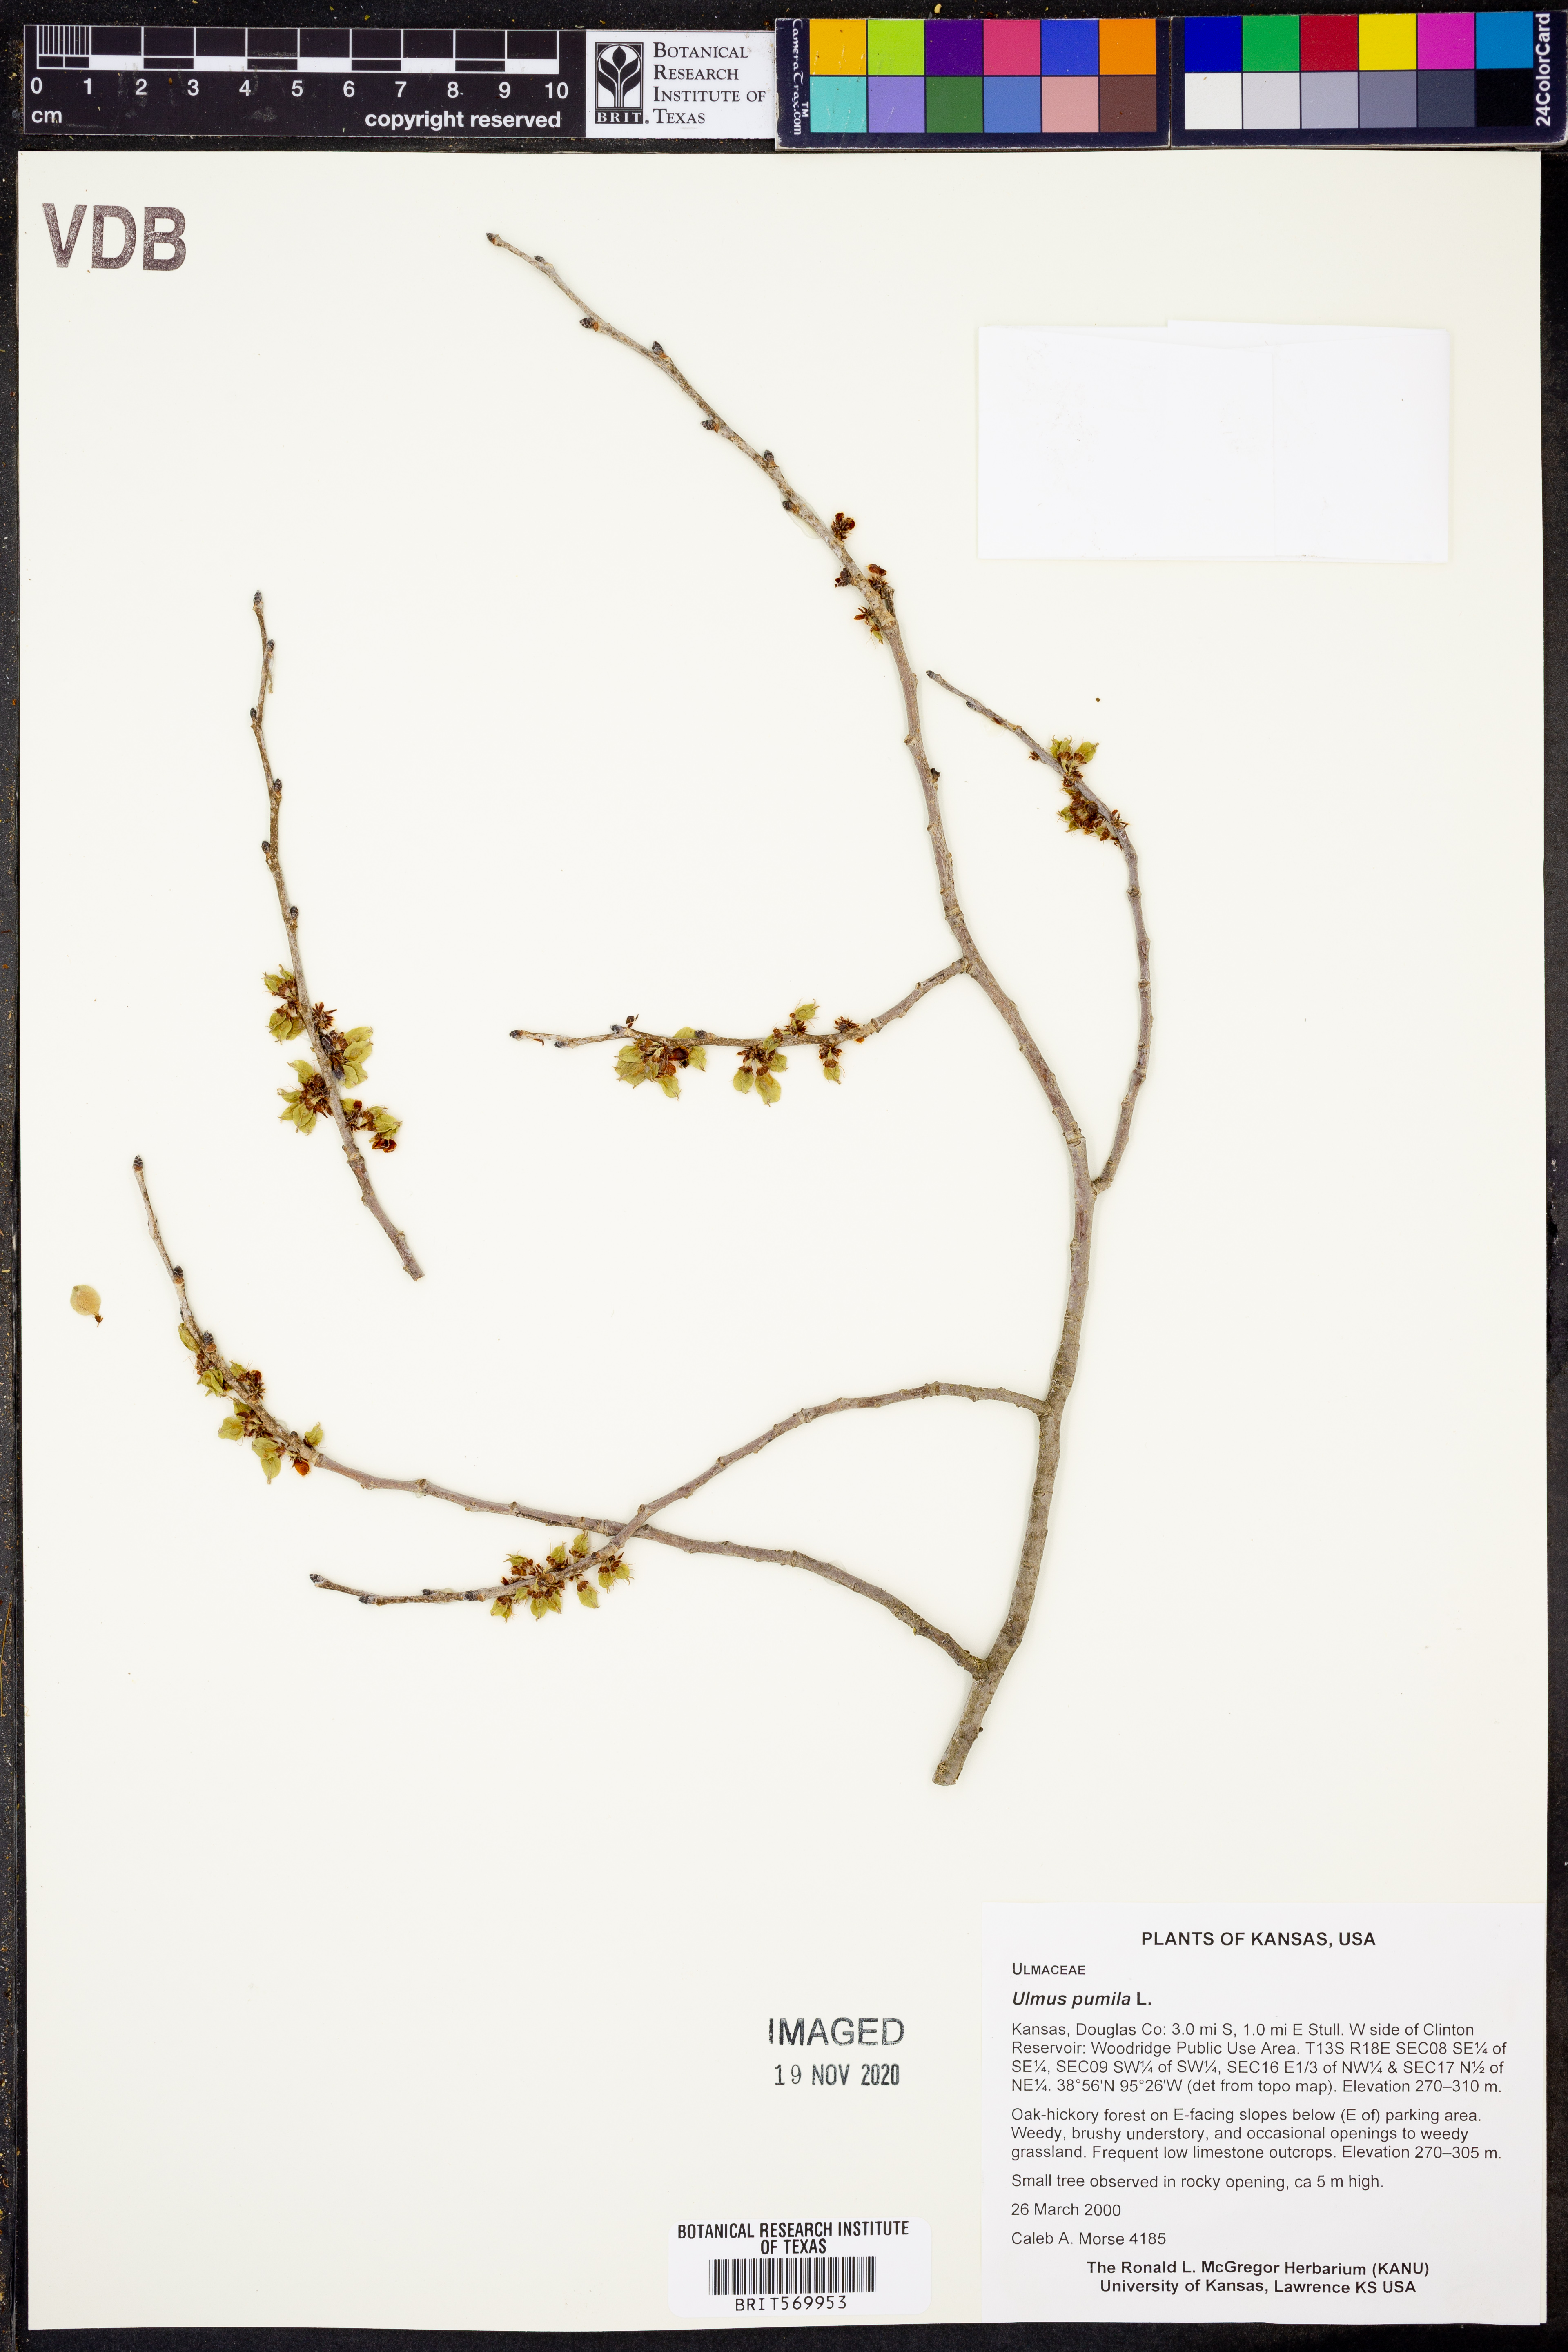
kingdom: Plantae
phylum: Tracheophyta
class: Magnoliopsida
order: Rosales
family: Ulmaceae
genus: Ulmus
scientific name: Ulmus pumila
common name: Siberian elm
